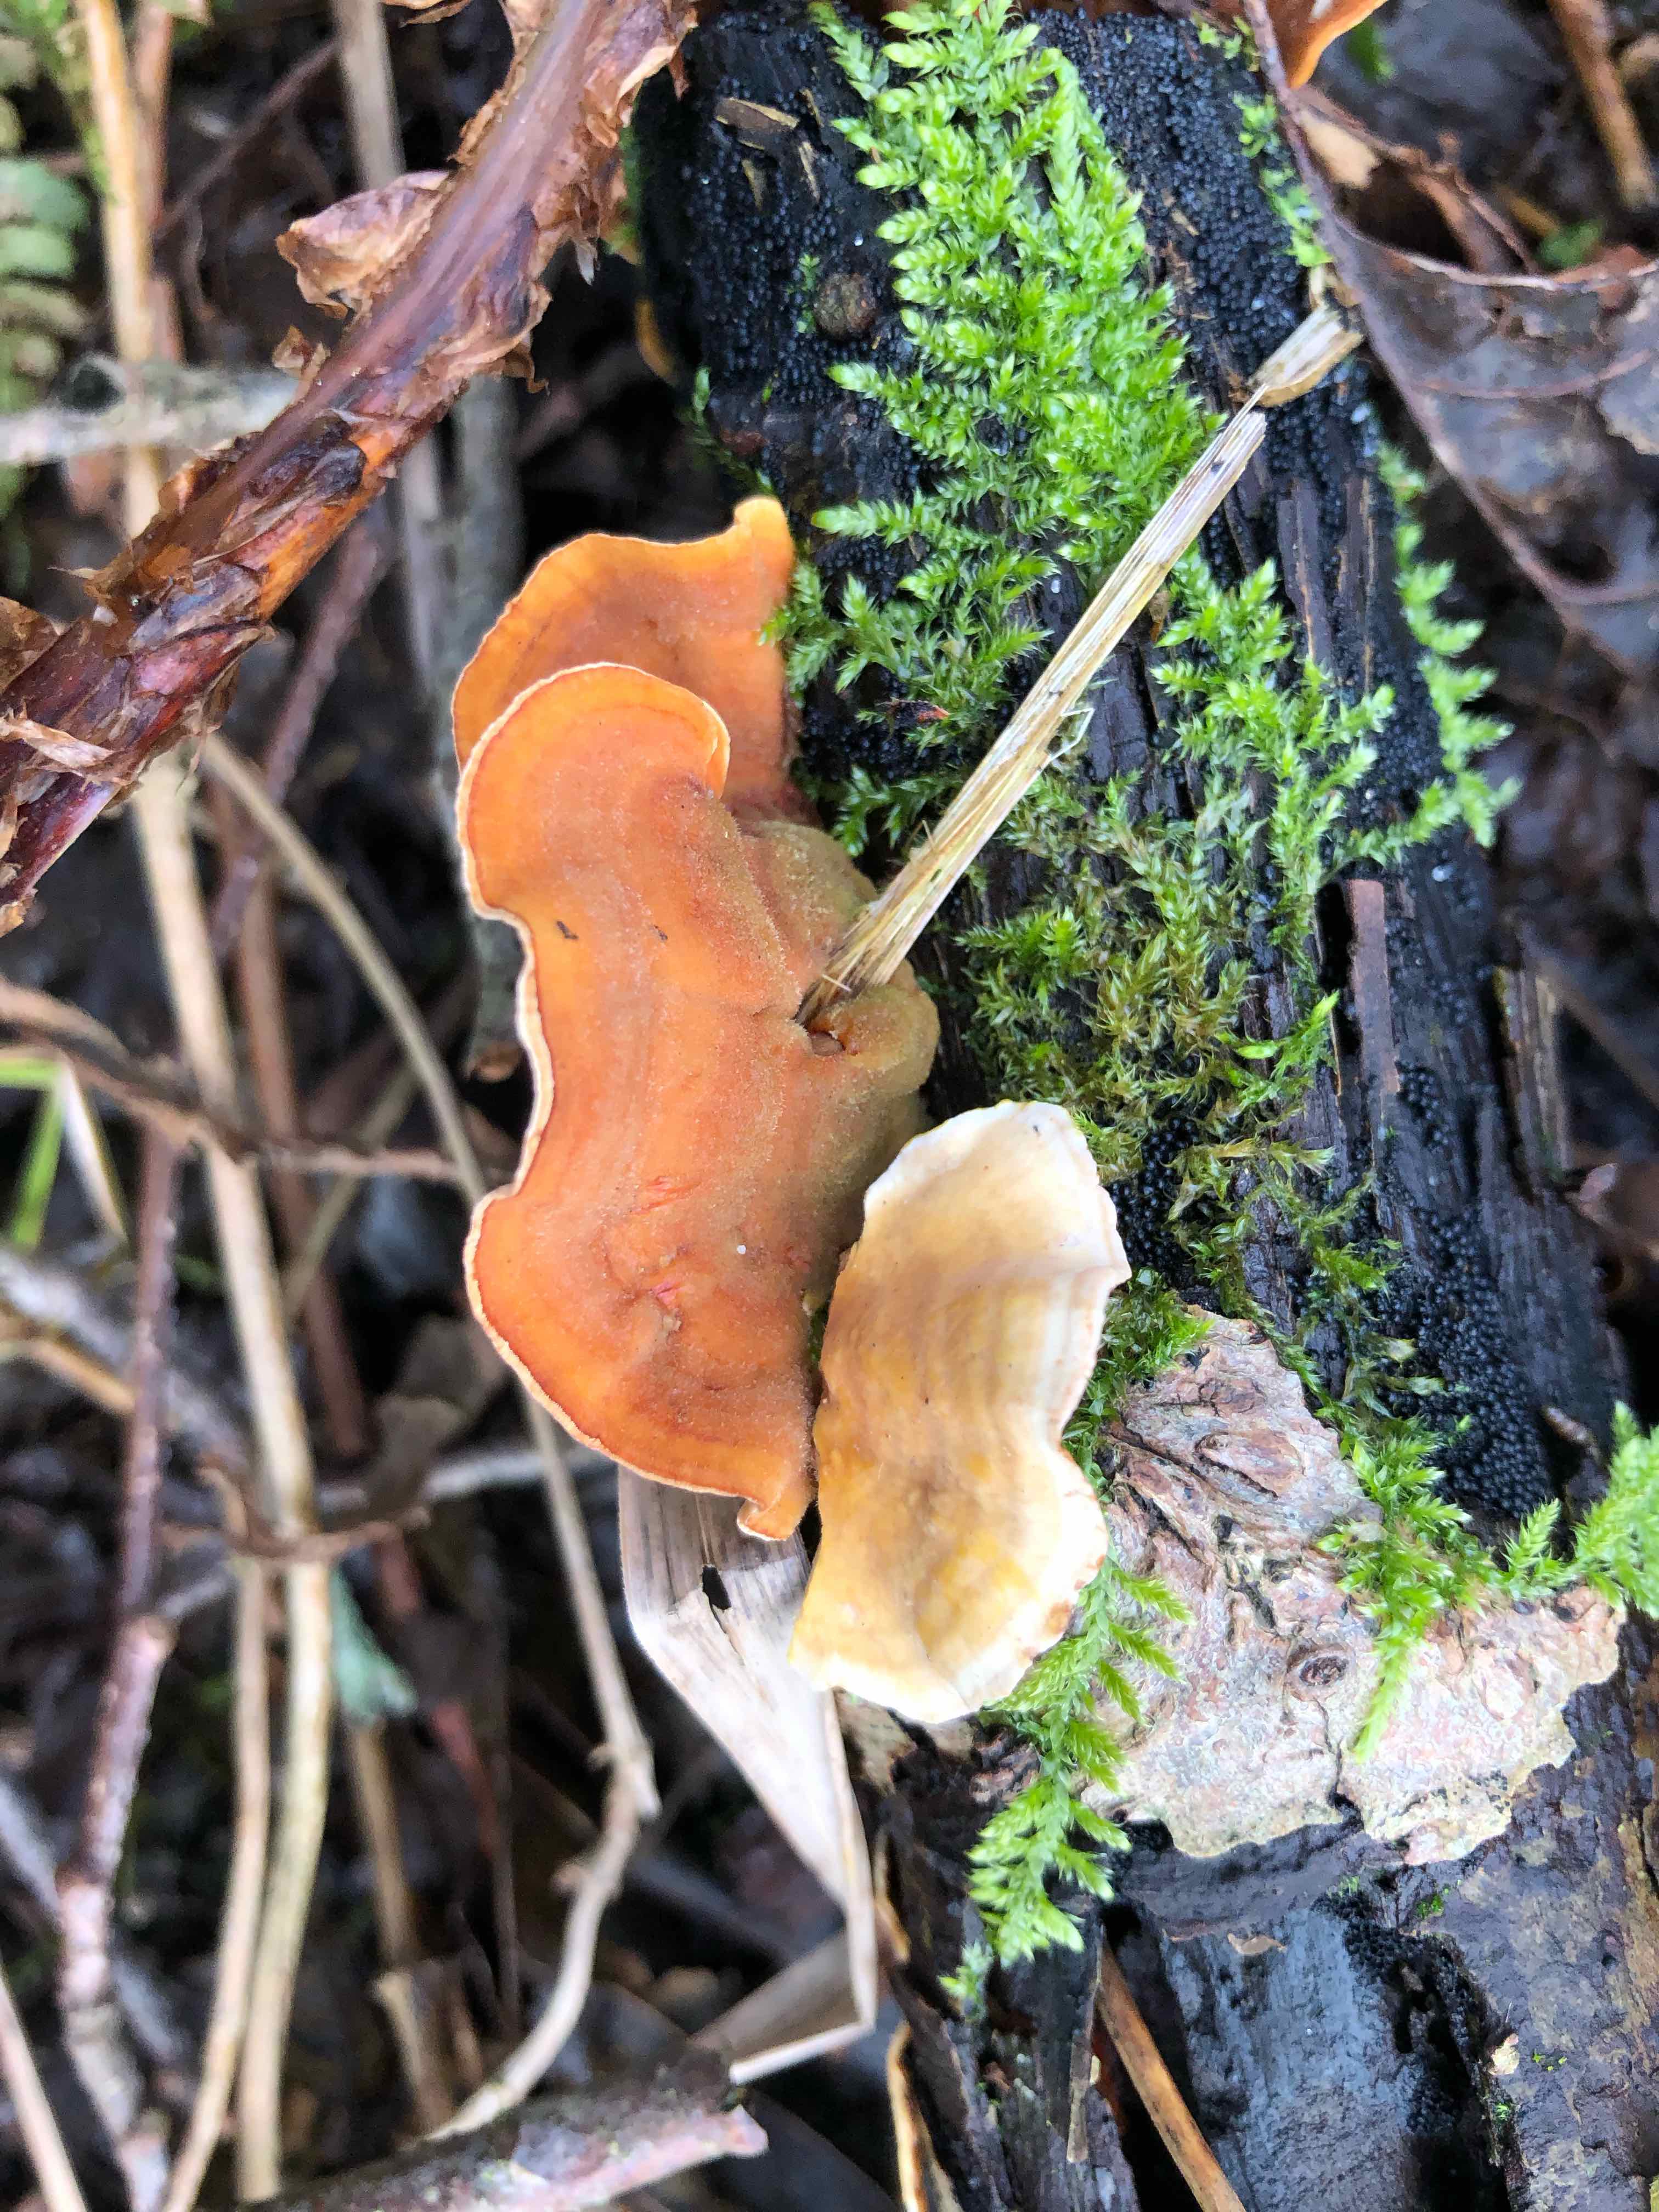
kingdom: Fungi
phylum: Basidiomycota
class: Agaricomycetes
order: Russulales
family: Stereaceae
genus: Stereum
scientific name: Stereum subtomentosum
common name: smuk lædersvamp
